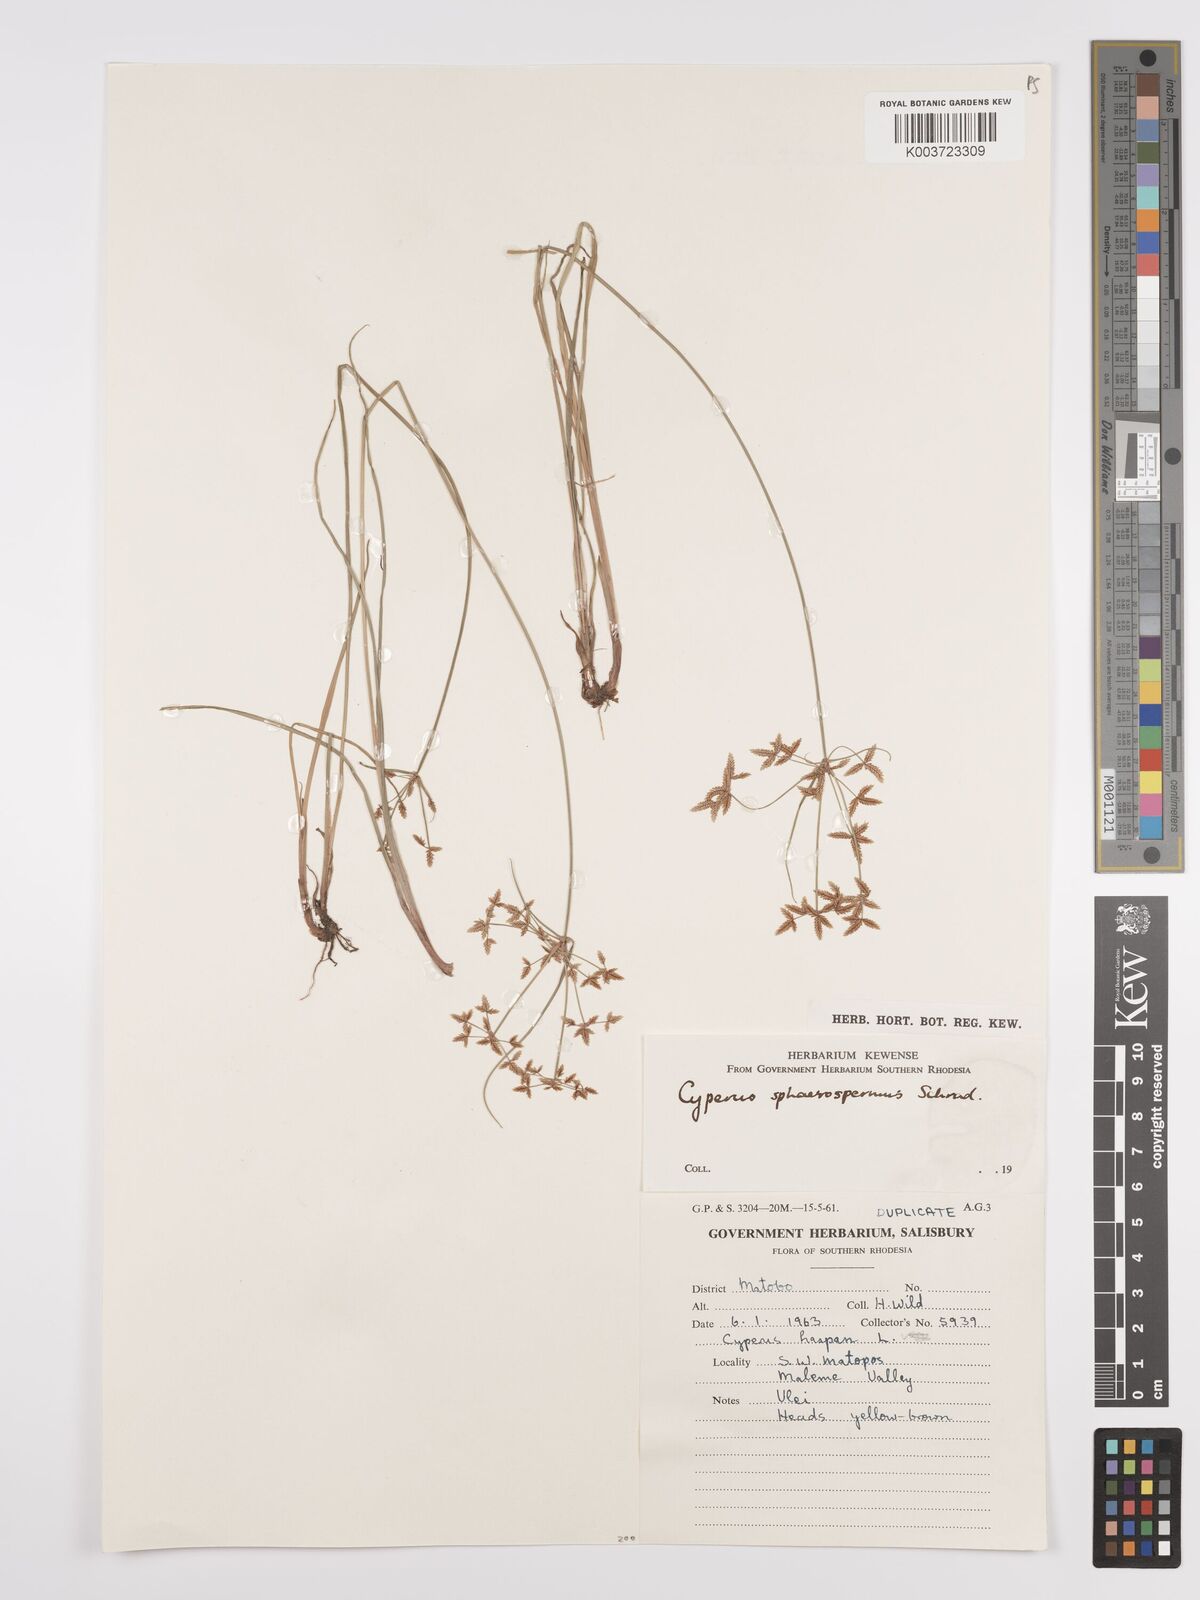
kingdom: Plantae
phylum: Tracheophyta
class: Liliopsida
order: Poales
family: Cyperaceae
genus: Cyperus
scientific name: Cyperus denudatus
